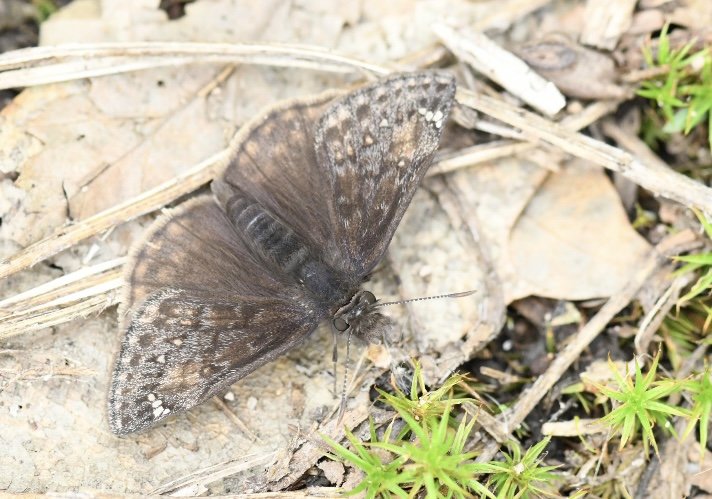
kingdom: Animalia
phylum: Arthropoda
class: Insecta
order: Lepidoptera
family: Hesperiidae
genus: Gesta
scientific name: Gesta
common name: Juvenal's Duskywing
